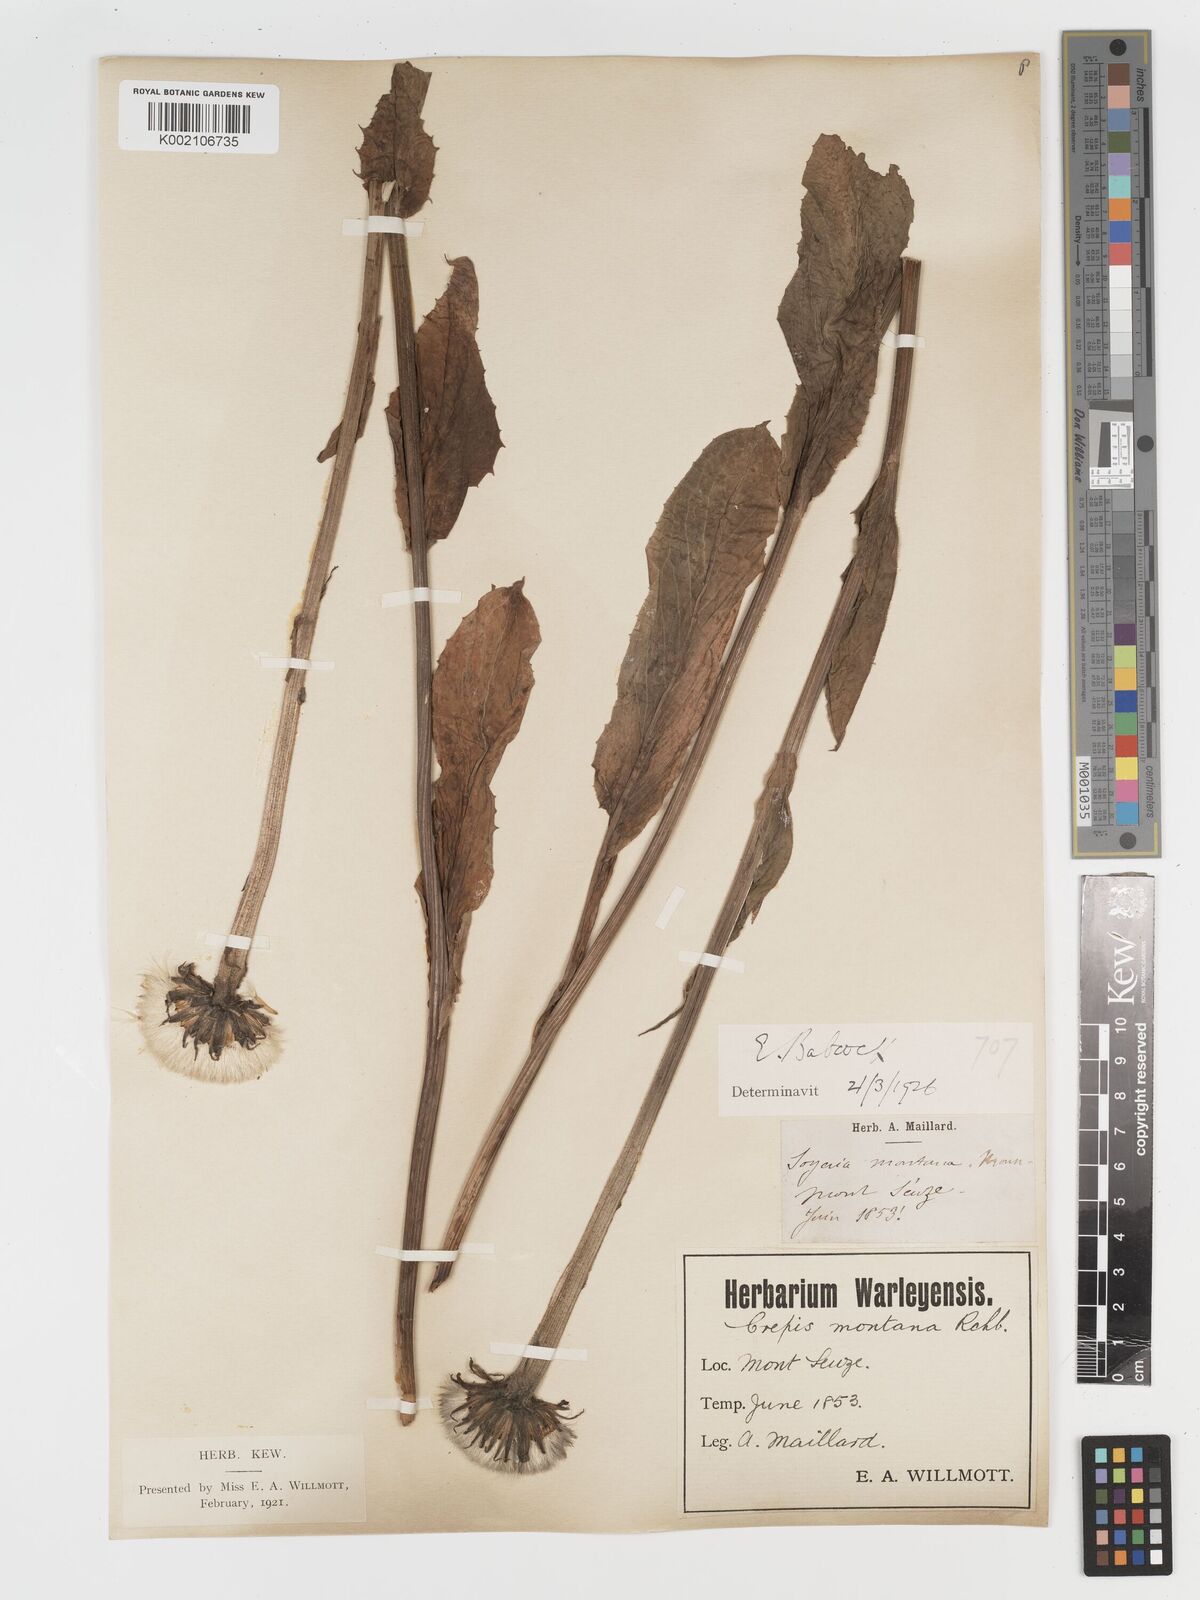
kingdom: Plantae
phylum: Tracheophyta
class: Magnoliopsida
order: Asterales
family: Asteraceae
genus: Crepis
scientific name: Crepis pontana
